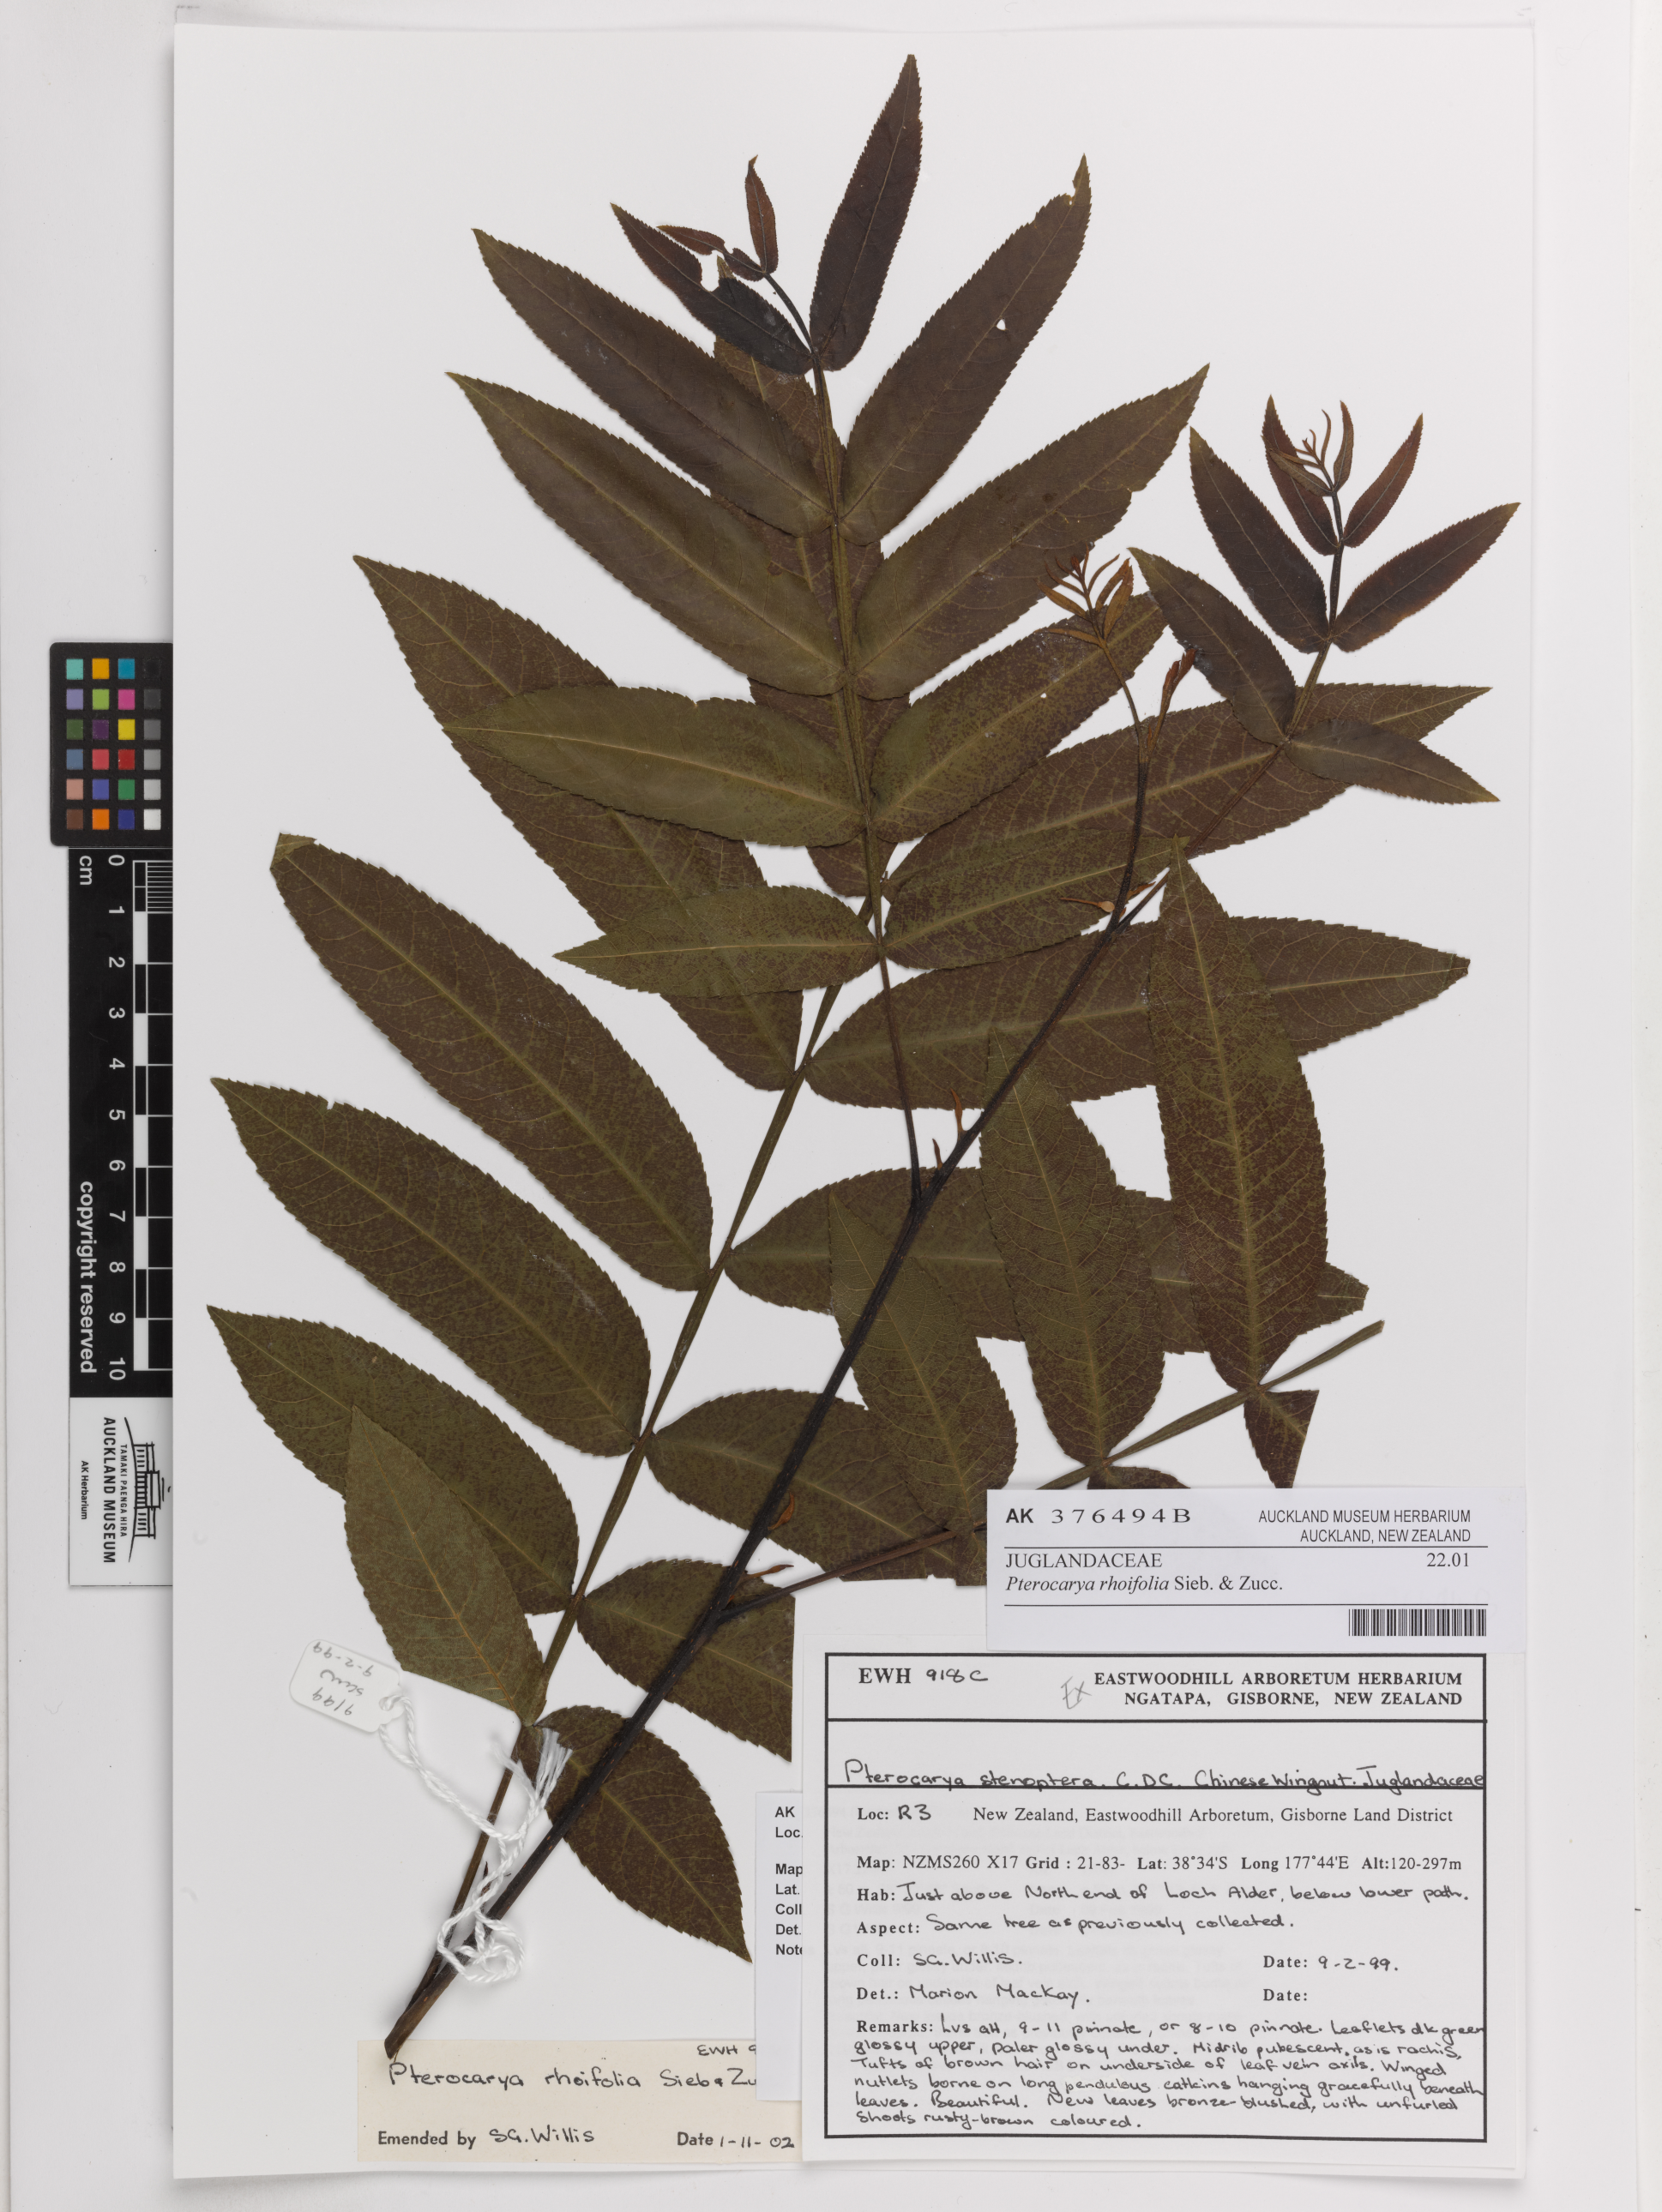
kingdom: Plantae
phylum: Tracheophyta
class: Magnoliopsida
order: Fagales
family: Juglandaceae
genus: Pterocarya
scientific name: Pterocarya rhoifolia
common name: Japanese wingnut
